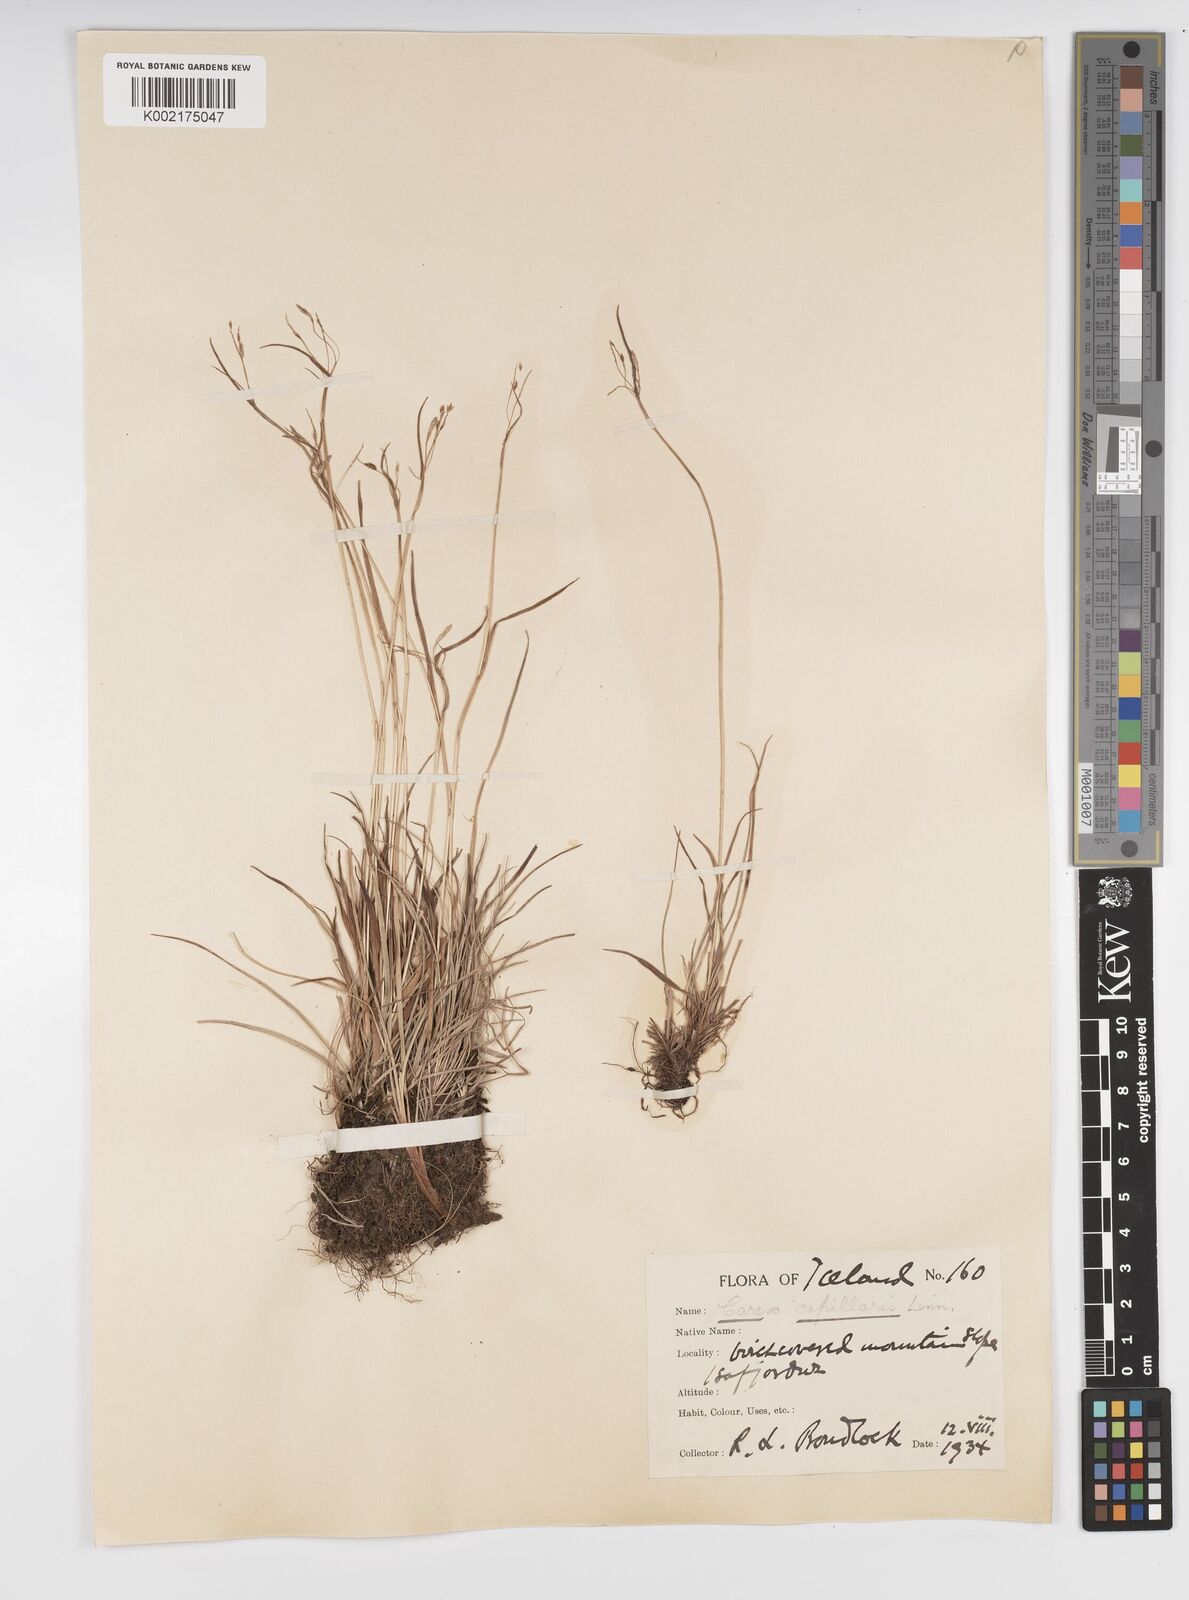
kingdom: Plantae
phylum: Tracheophyta
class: Liliopsida
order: Poales
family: Cyperaceae
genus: Carex
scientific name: Carex capillaris
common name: Hair sedge
